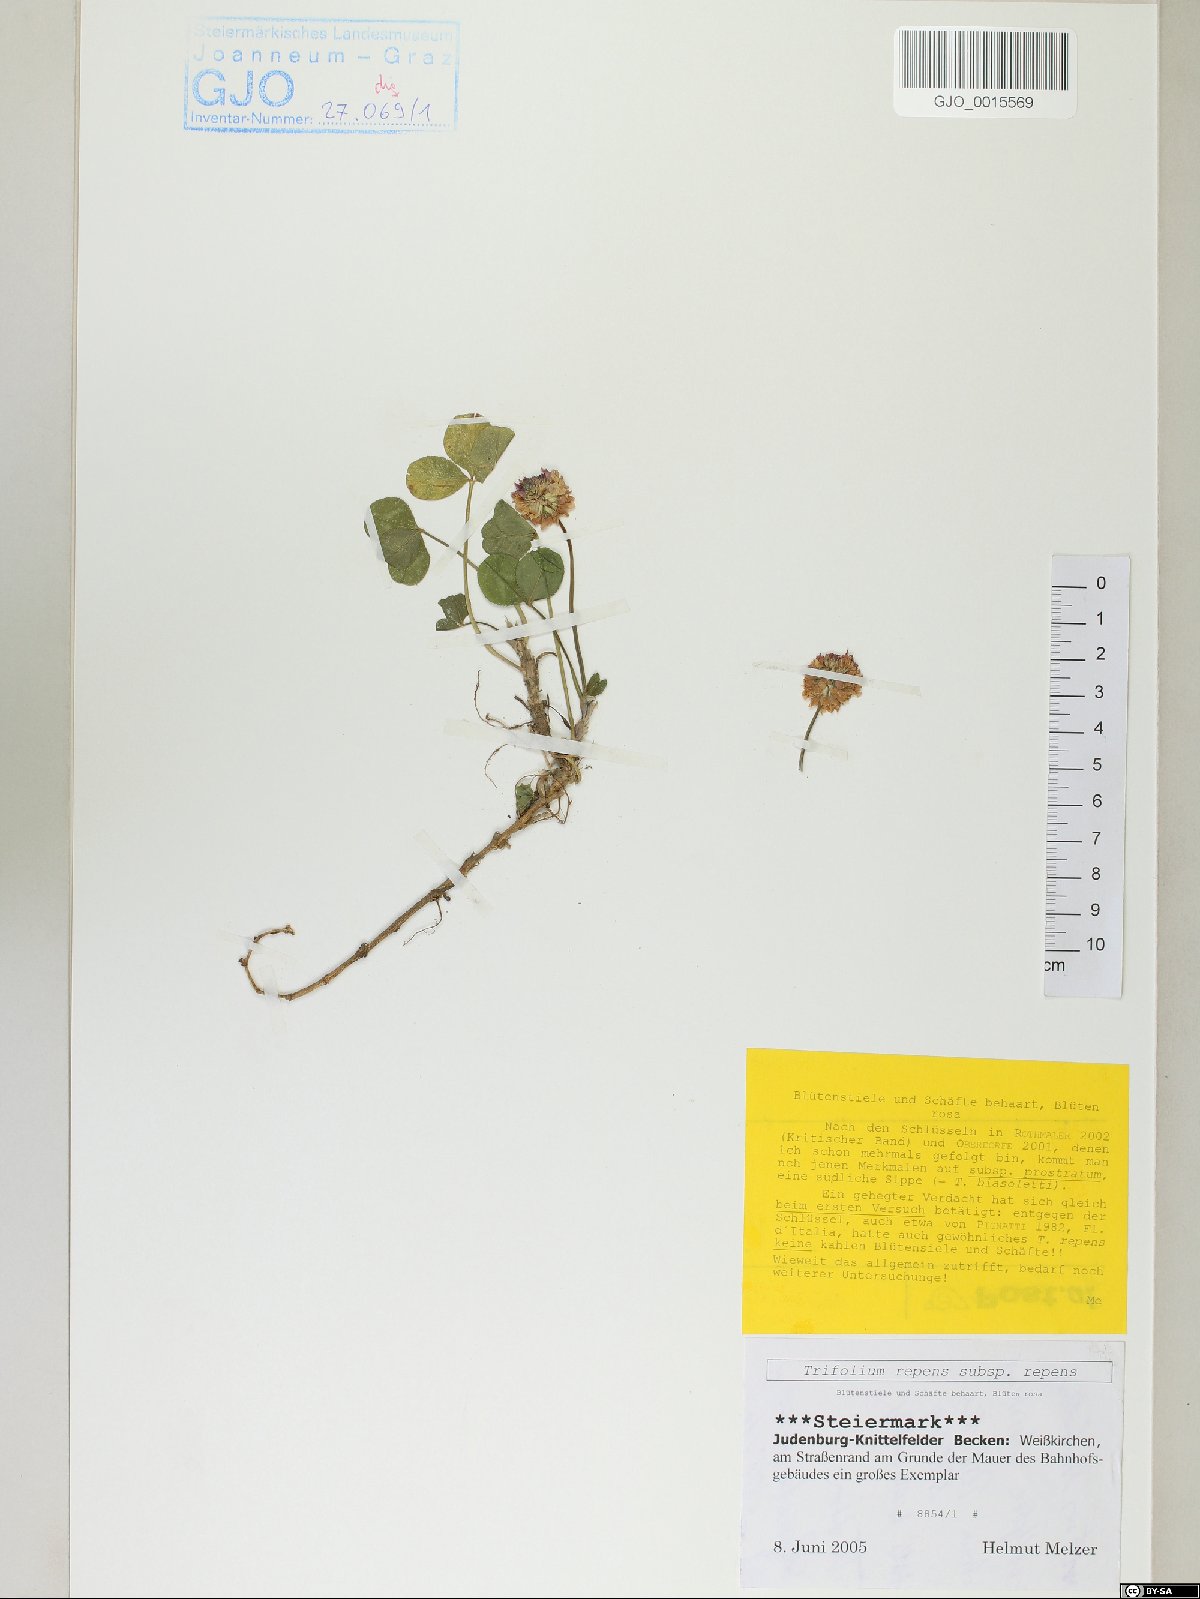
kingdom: Plantae
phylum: Tracheophyta
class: Magnoliopsida
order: Fabales
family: Fabaceae
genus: Trifolium
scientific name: Trifolium repens
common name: White clover
